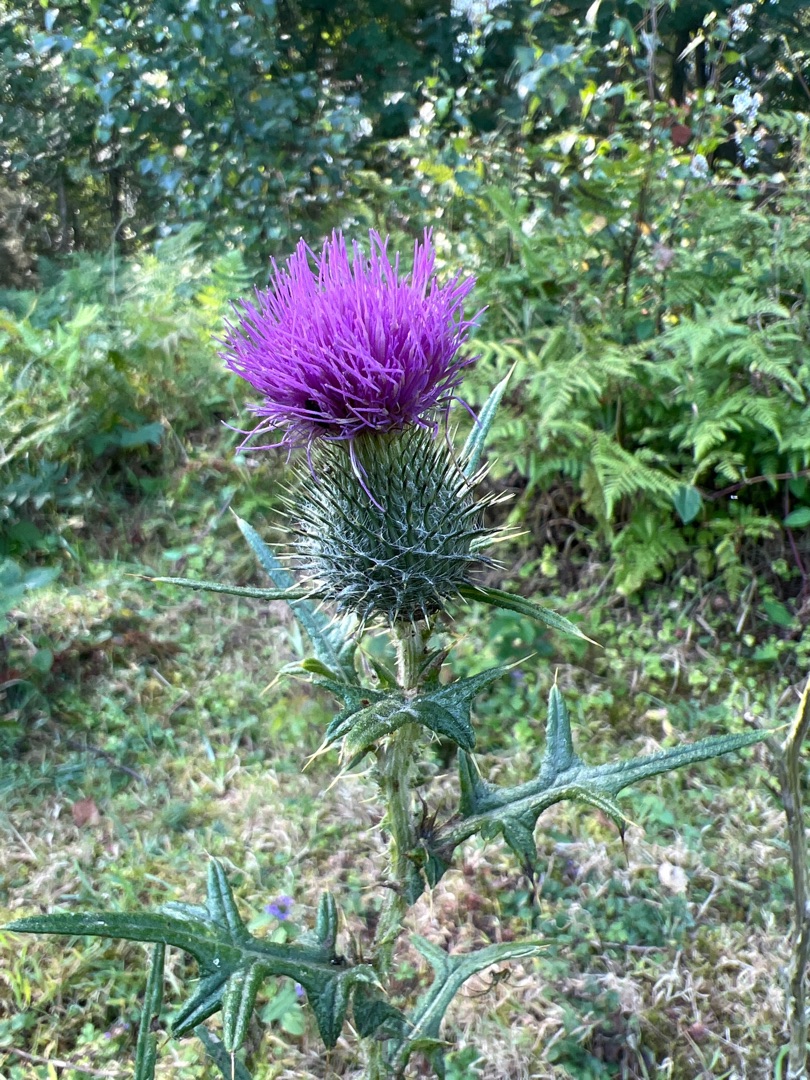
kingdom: Plantae
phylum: Tracheophyta
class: Magnoliopsida
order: Asterales
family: Asteraceae
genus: Cirsium
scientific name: Cirsium vulgare
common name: Horse-tidsel
